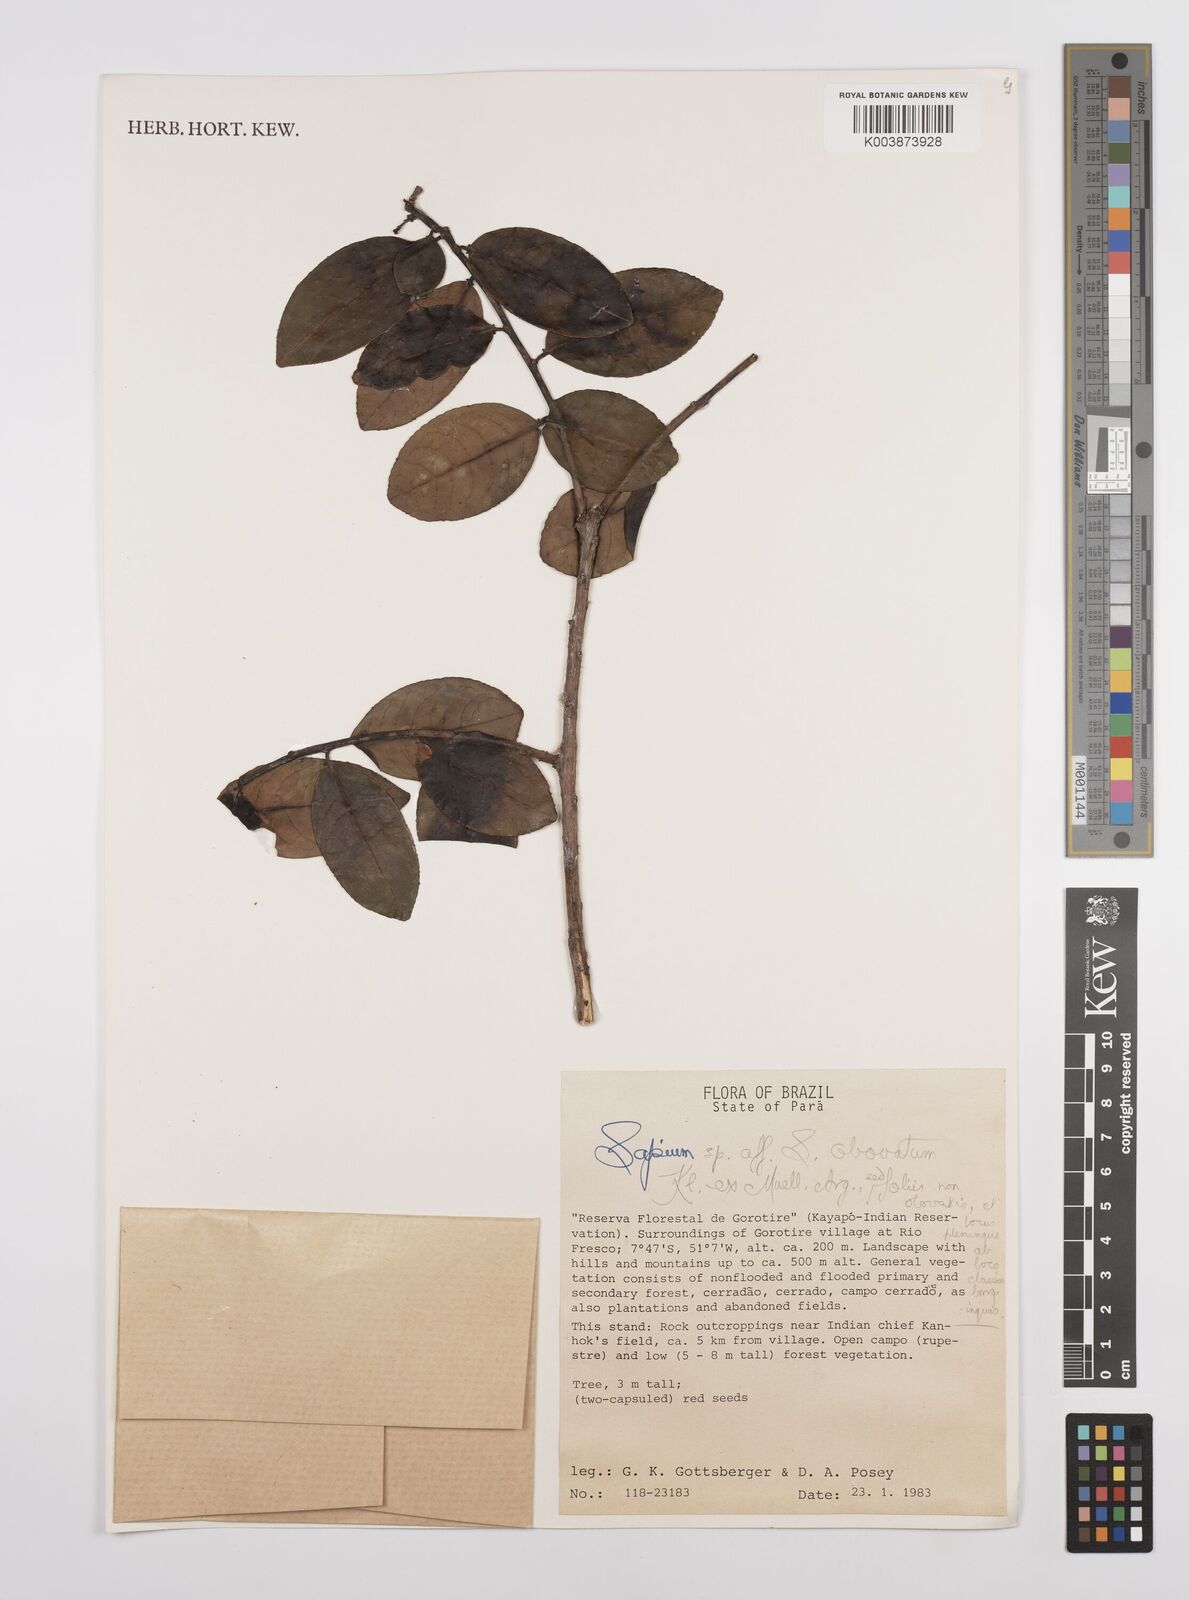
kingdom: Plantae
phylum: Tracheophyta
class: Magnoliopsida
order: Malpighiales
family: Euphorbiaceae
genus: Sapium
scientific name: Sapium obovatum
